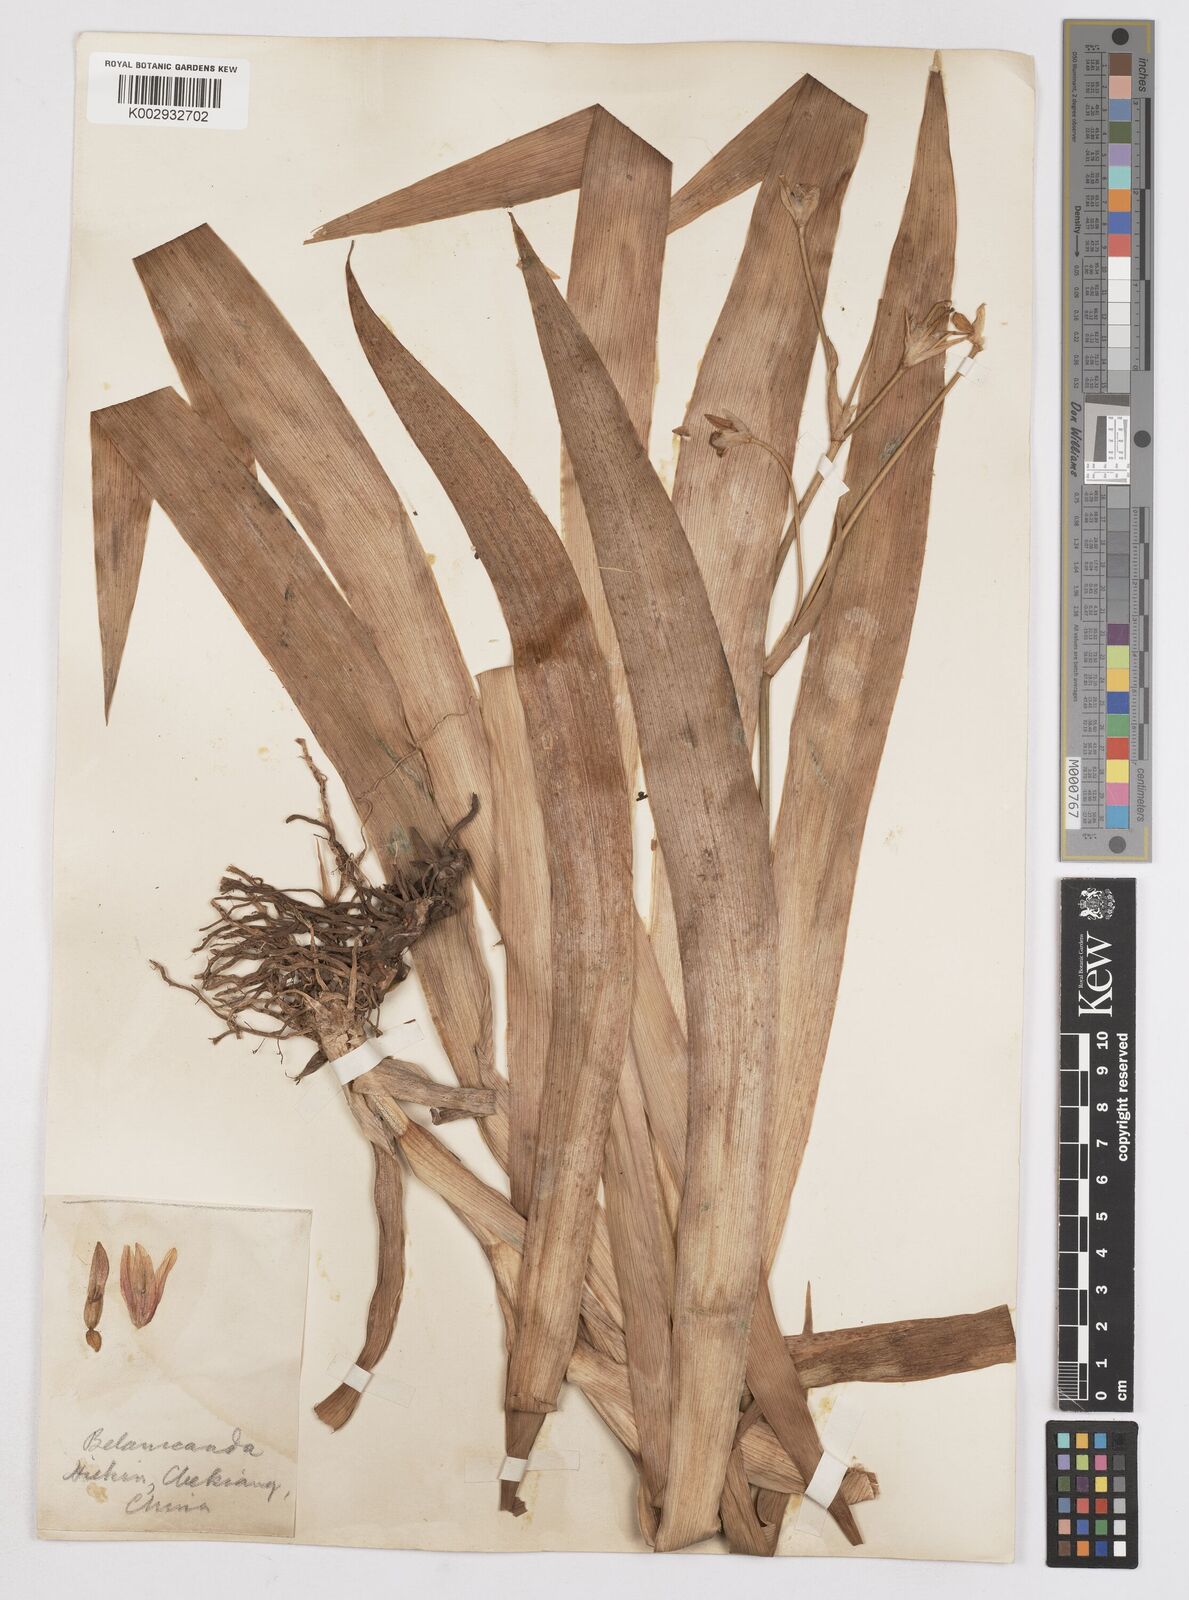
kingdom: Plantae
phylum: Tracheophyta
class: Liliopsida
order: Asparagales
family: Iridaceae
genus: Iris
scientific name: Iris
